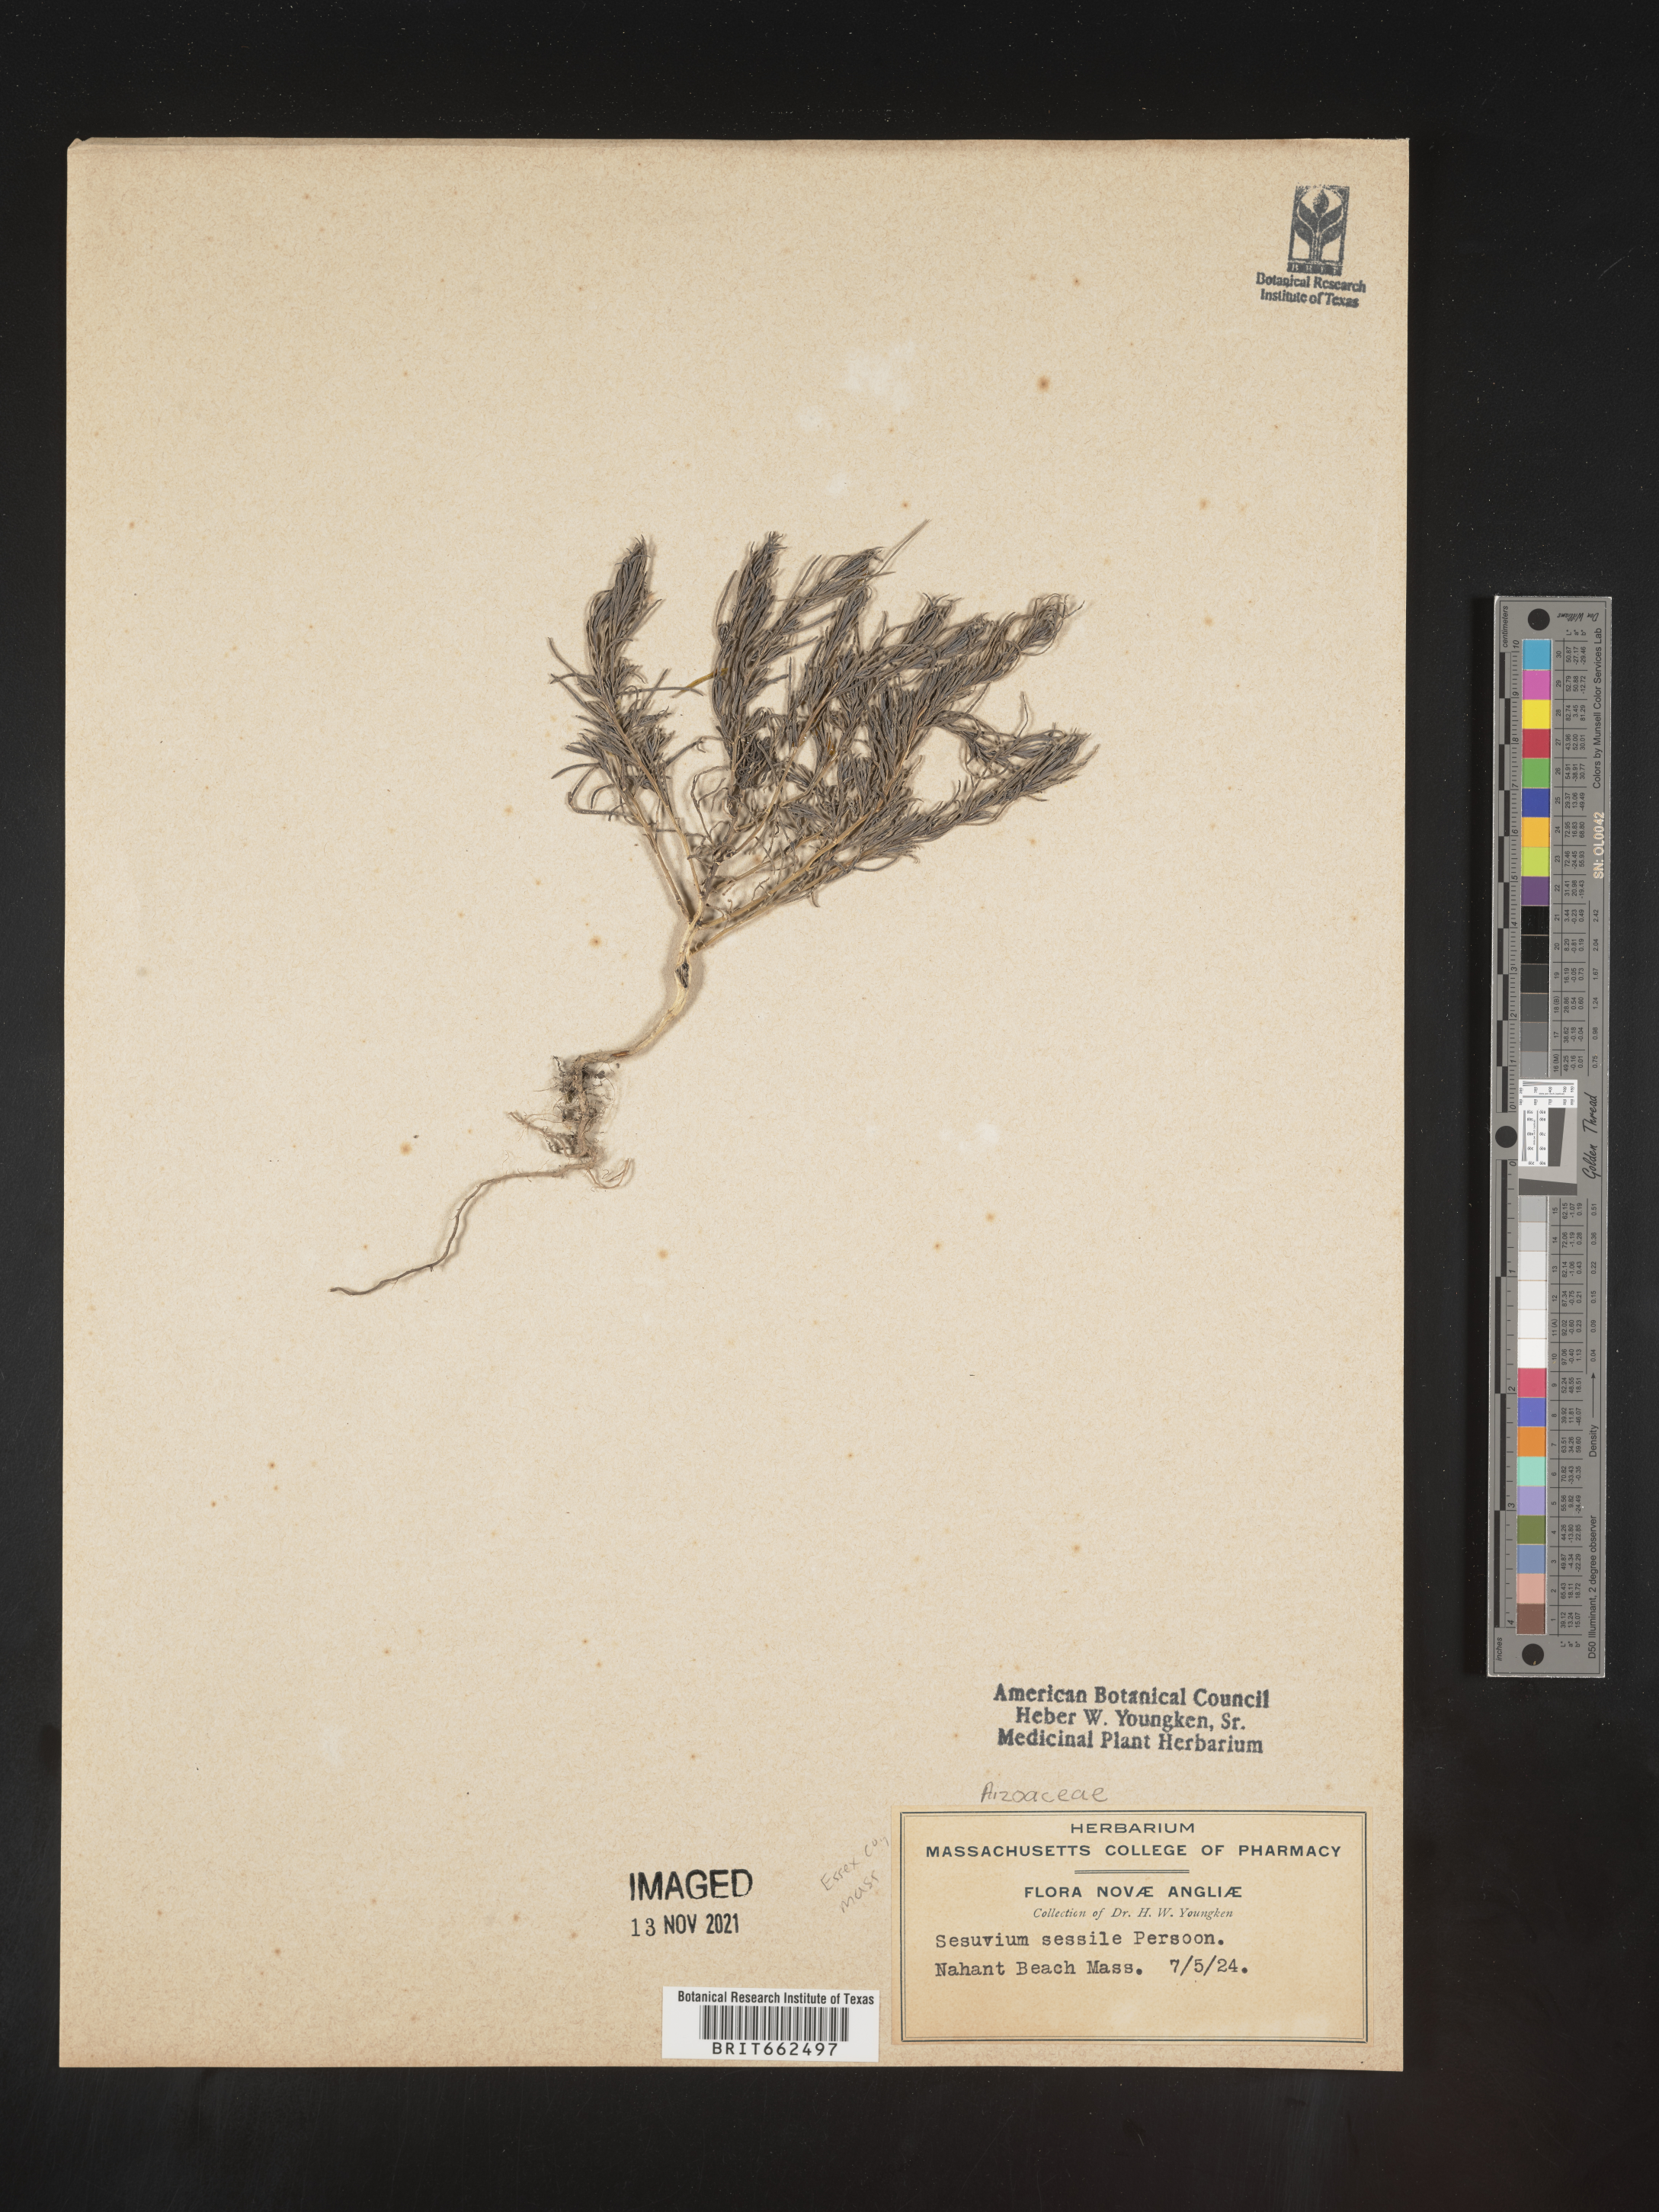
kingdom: Plantae
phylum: Tracheophyta
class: Magnoliopsida
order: Caryophyllales
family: Aizoaceae
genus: Sesuvium
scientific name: Sesuvium
